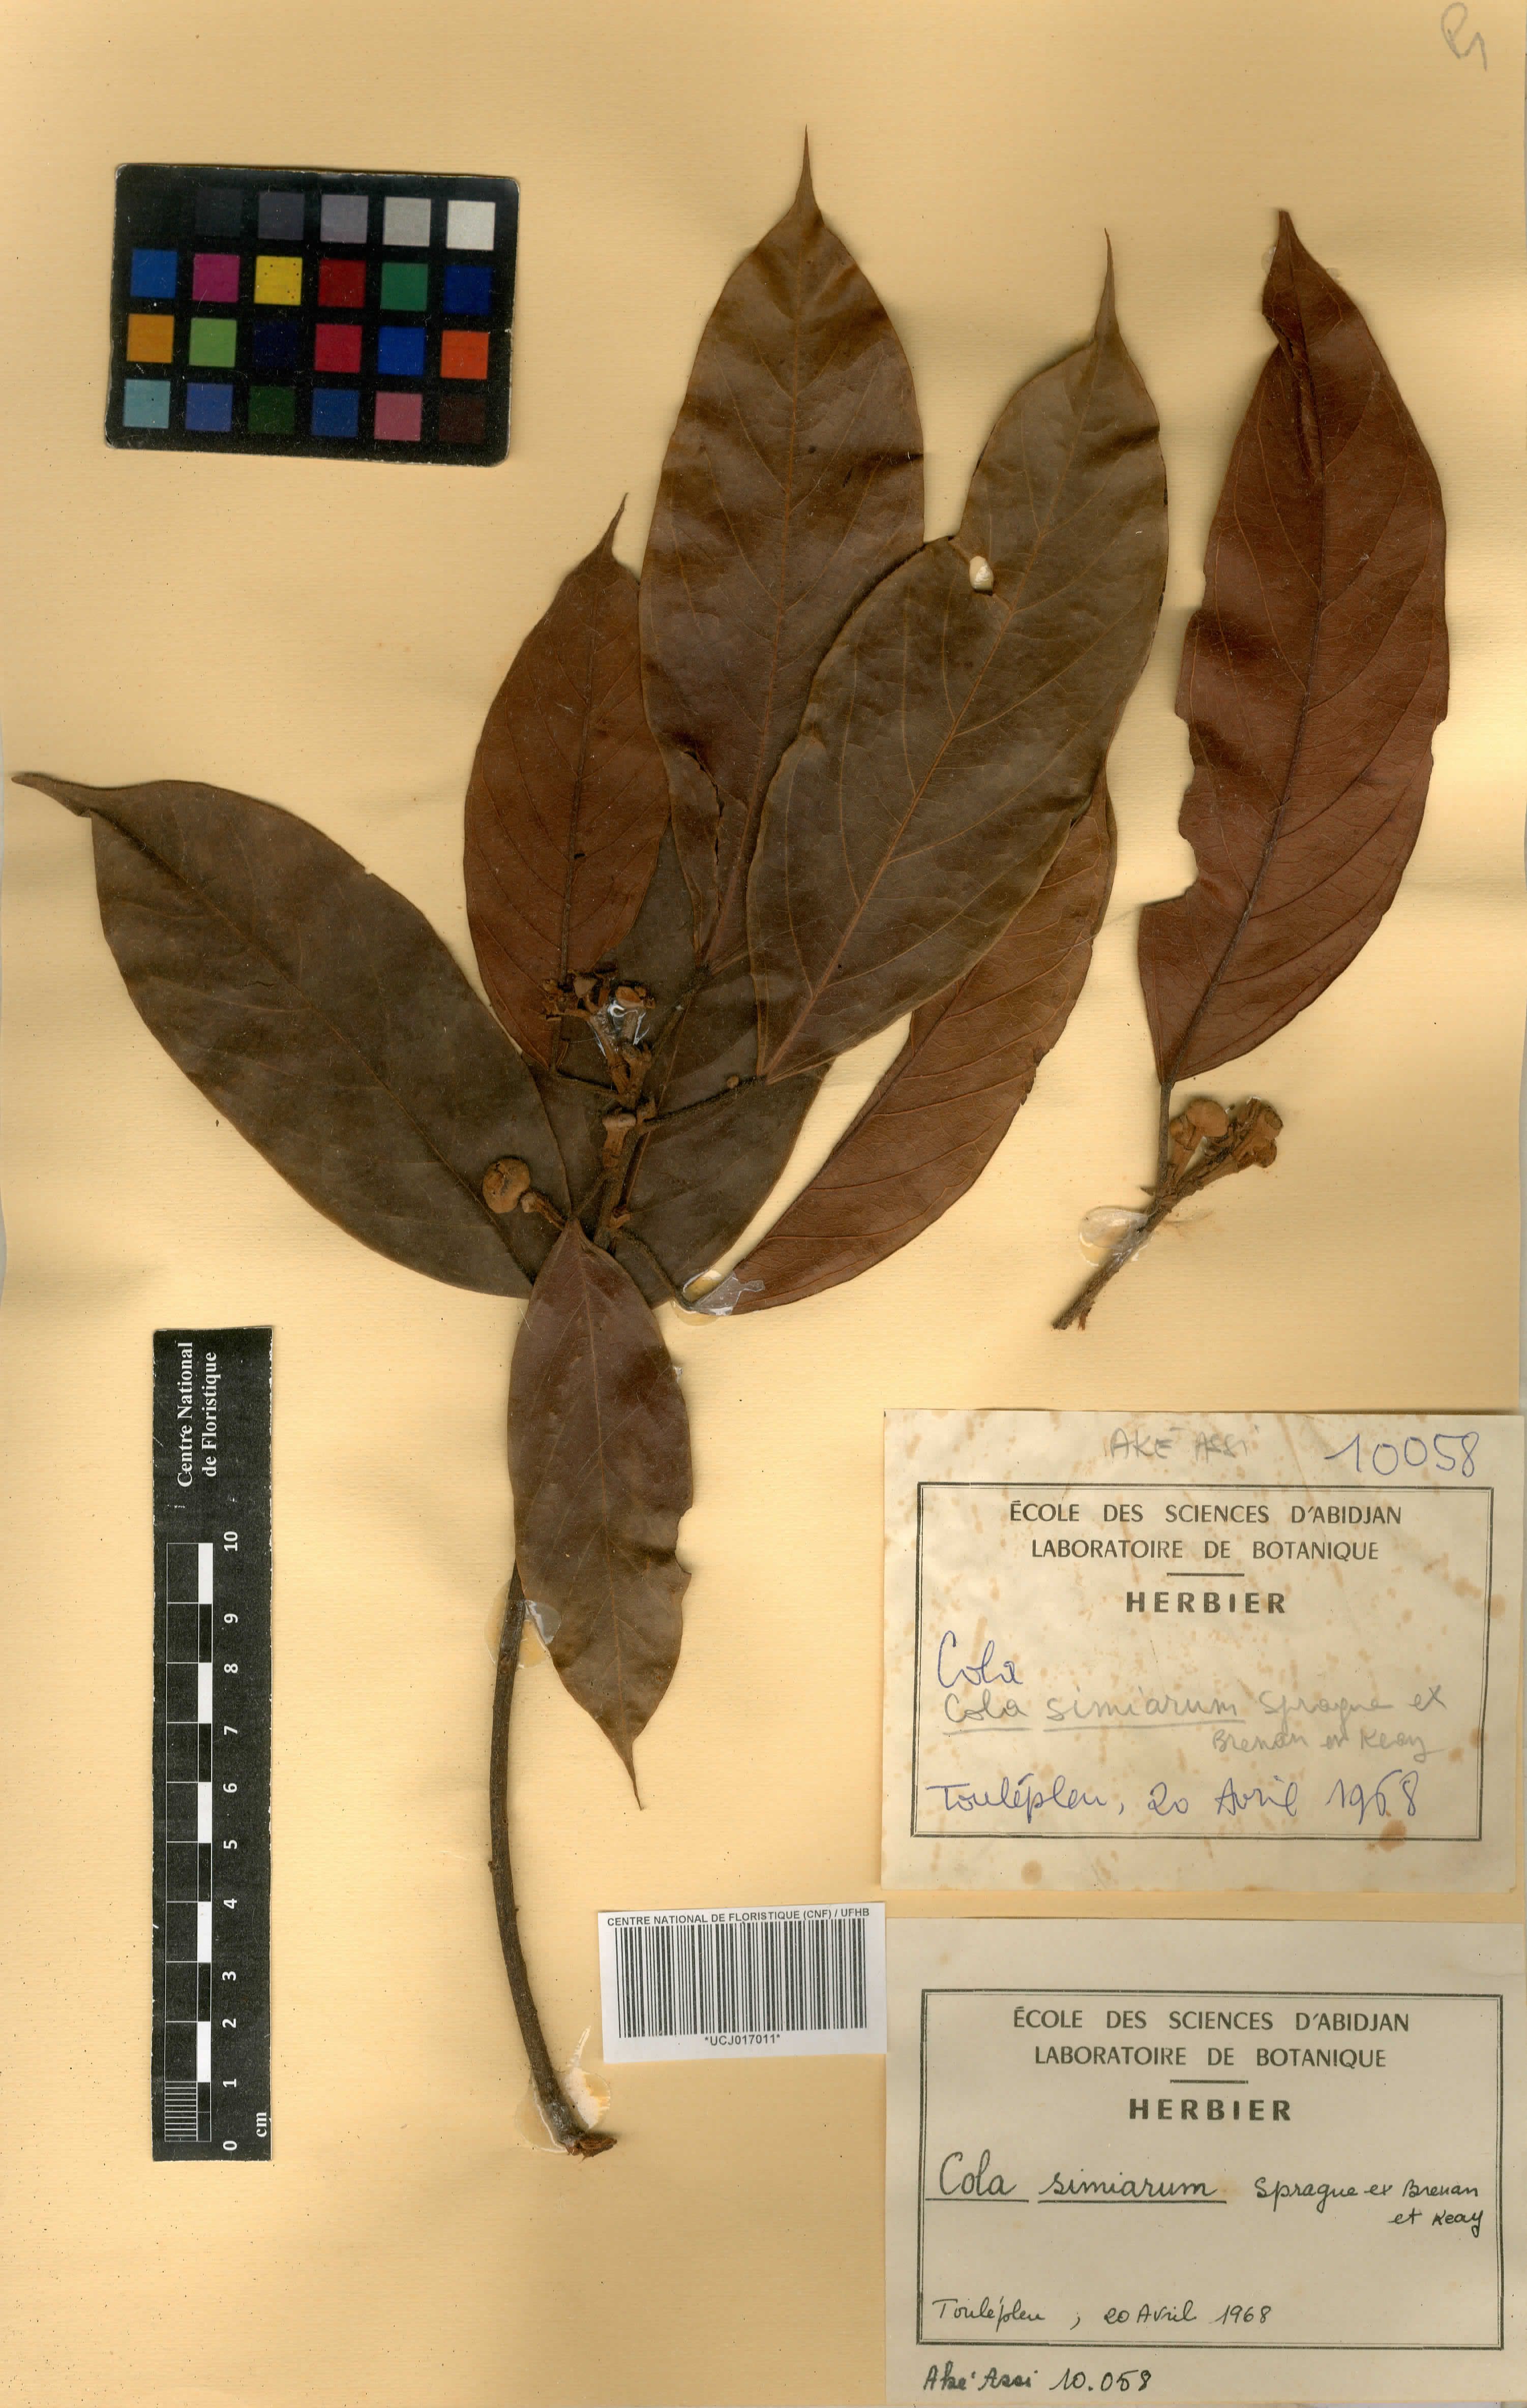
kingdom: Plantae
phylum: Tracheophyta
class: Magnoliopsida
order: Malvales
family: Malvaceae
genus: Cola
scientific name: Cola simiarum
